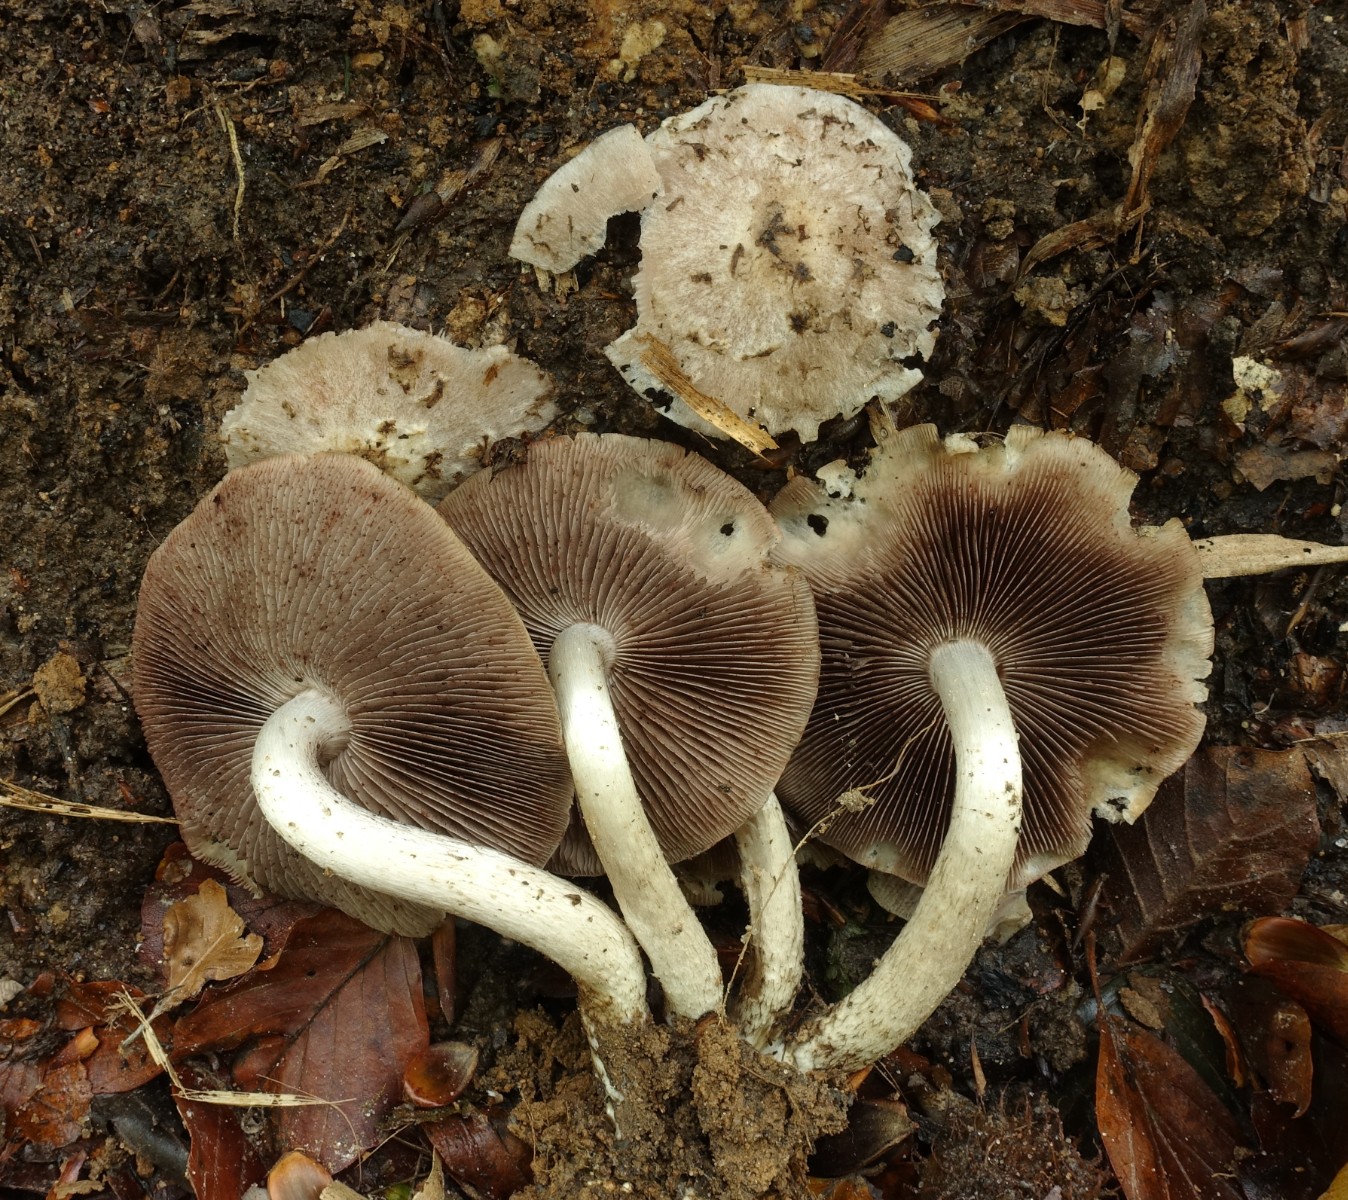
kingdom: Fungi
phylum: Basidiomycota
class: Agaricomycetes
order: Agaricales
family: Psathyrellaceae
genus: Psathyrella
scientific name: Psathyrella cotonea
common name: skællet mørkhat
